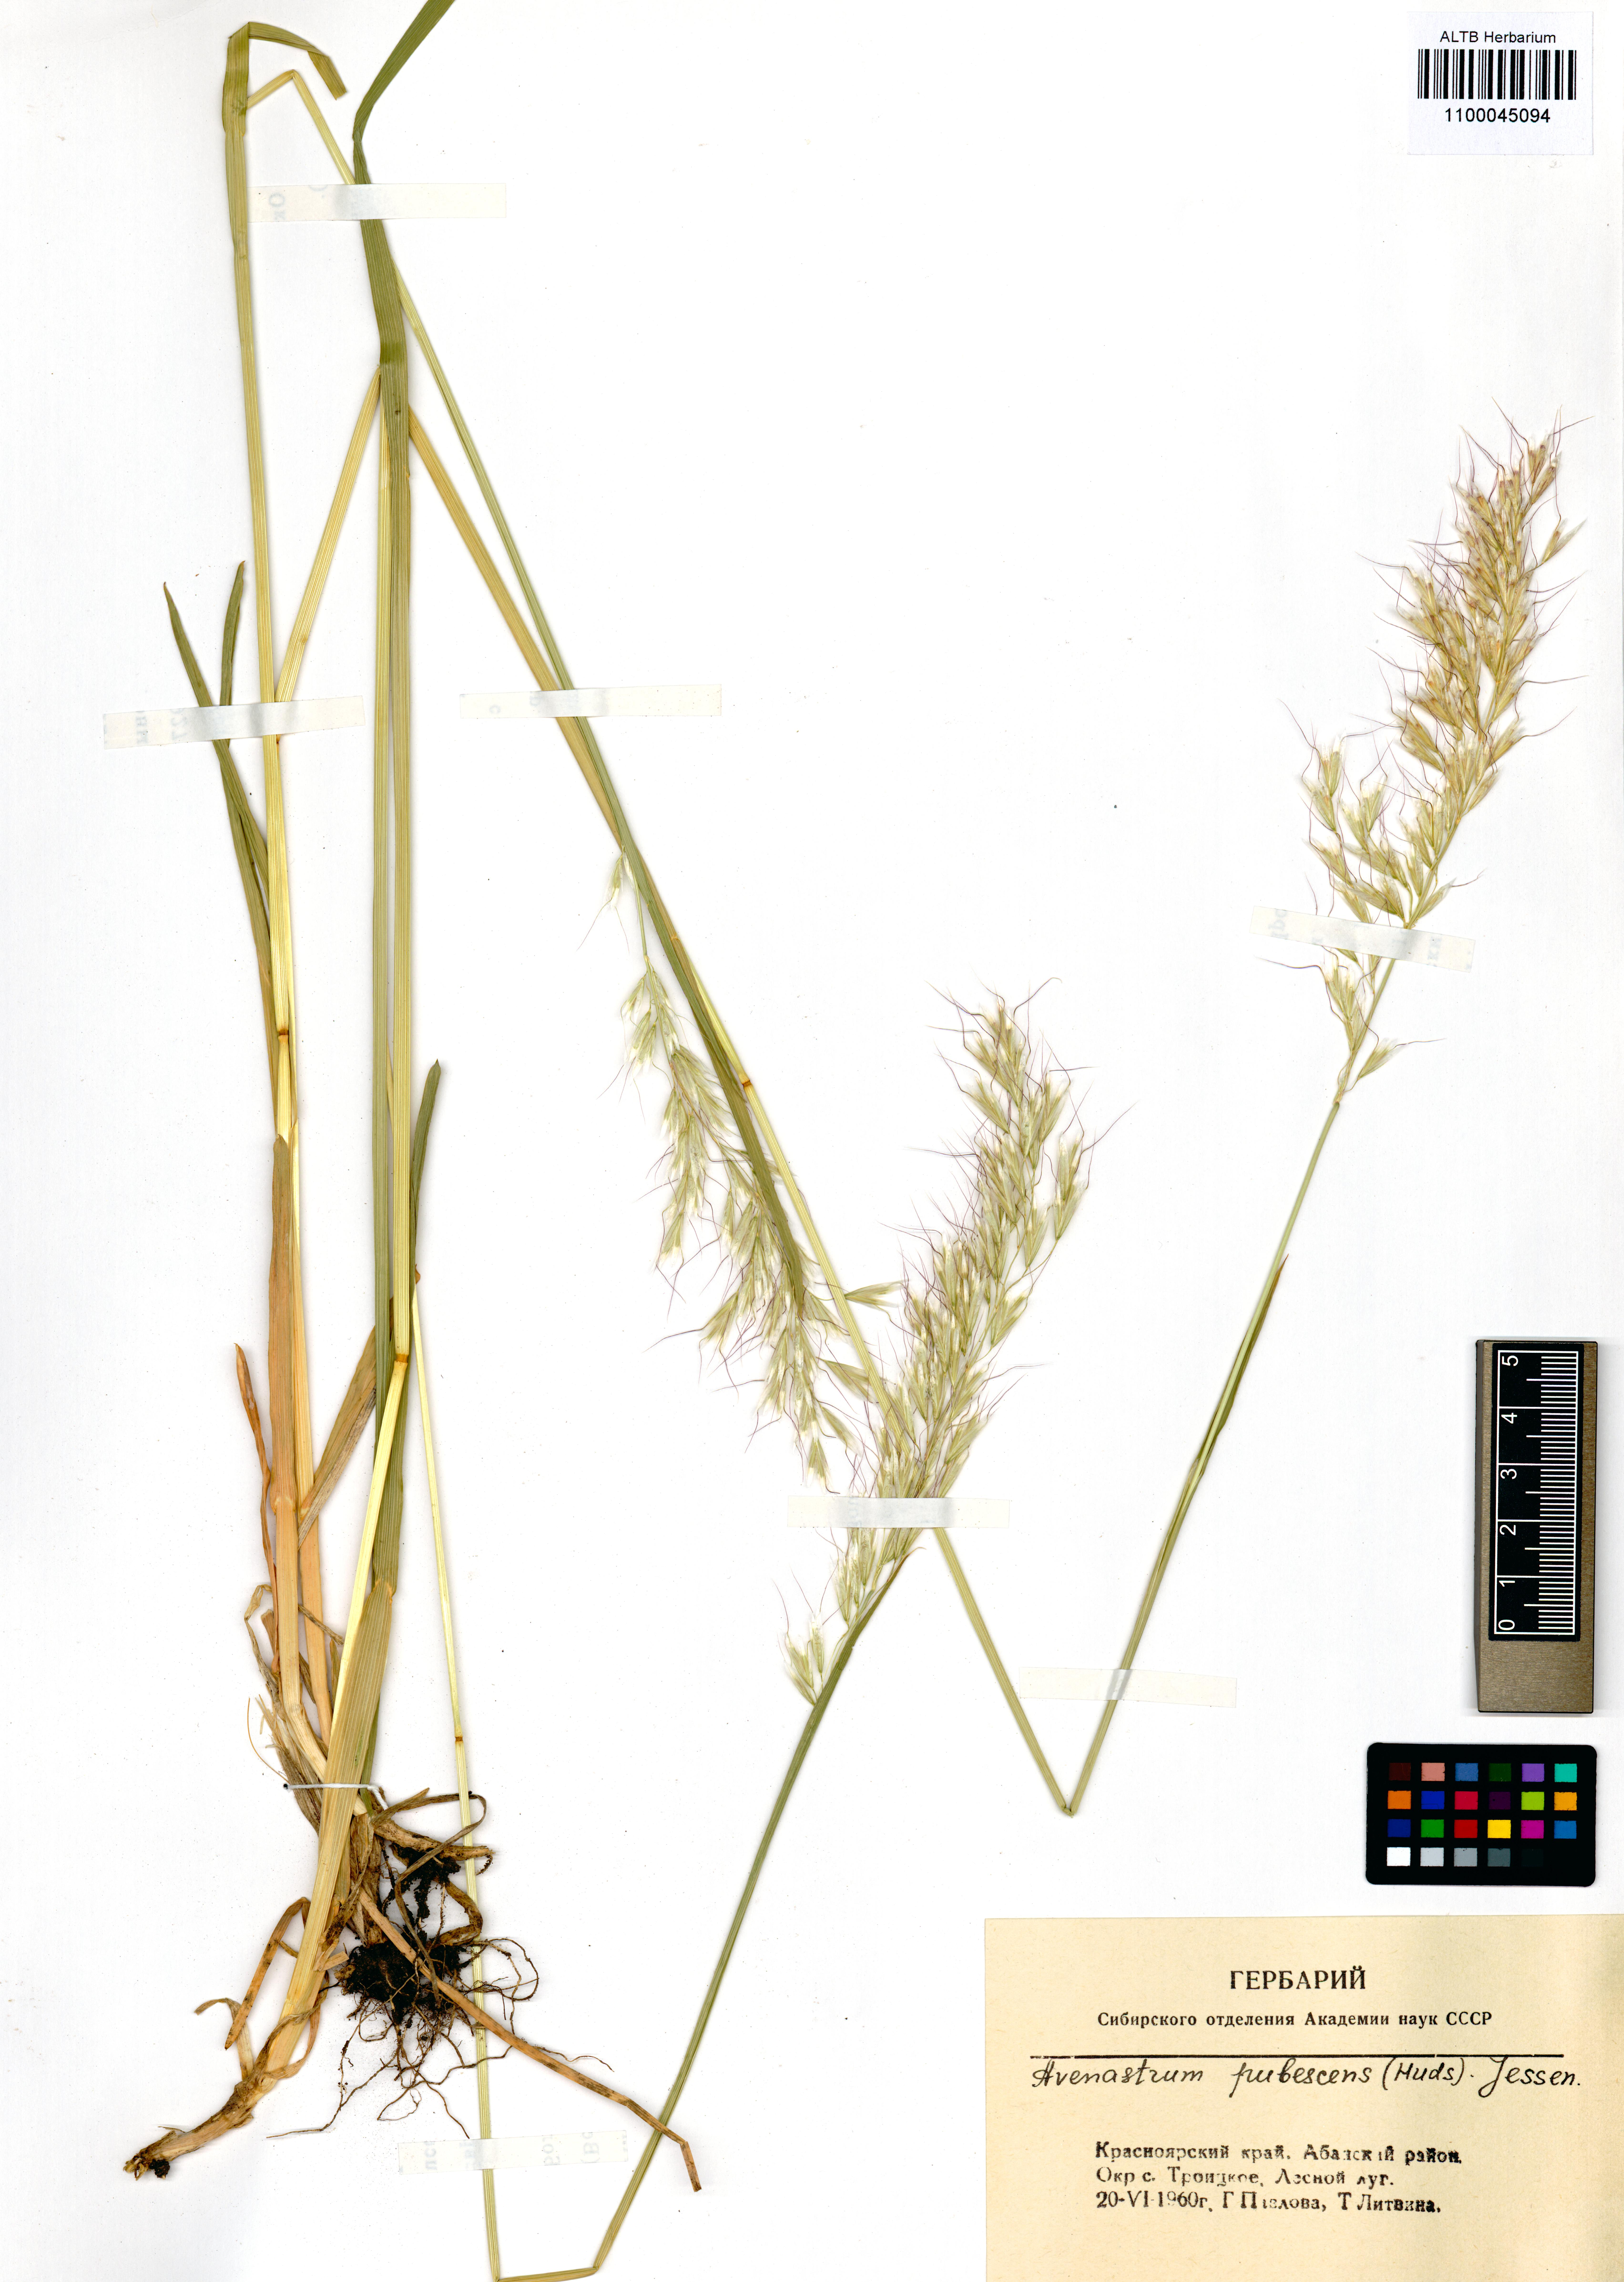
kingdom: Plantae
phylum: Tracheophyta
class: Liliopsida
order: Poales
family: Poaceae
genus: Avenula
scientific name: Avenula pubescens
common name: Downy alpine oatgrass
